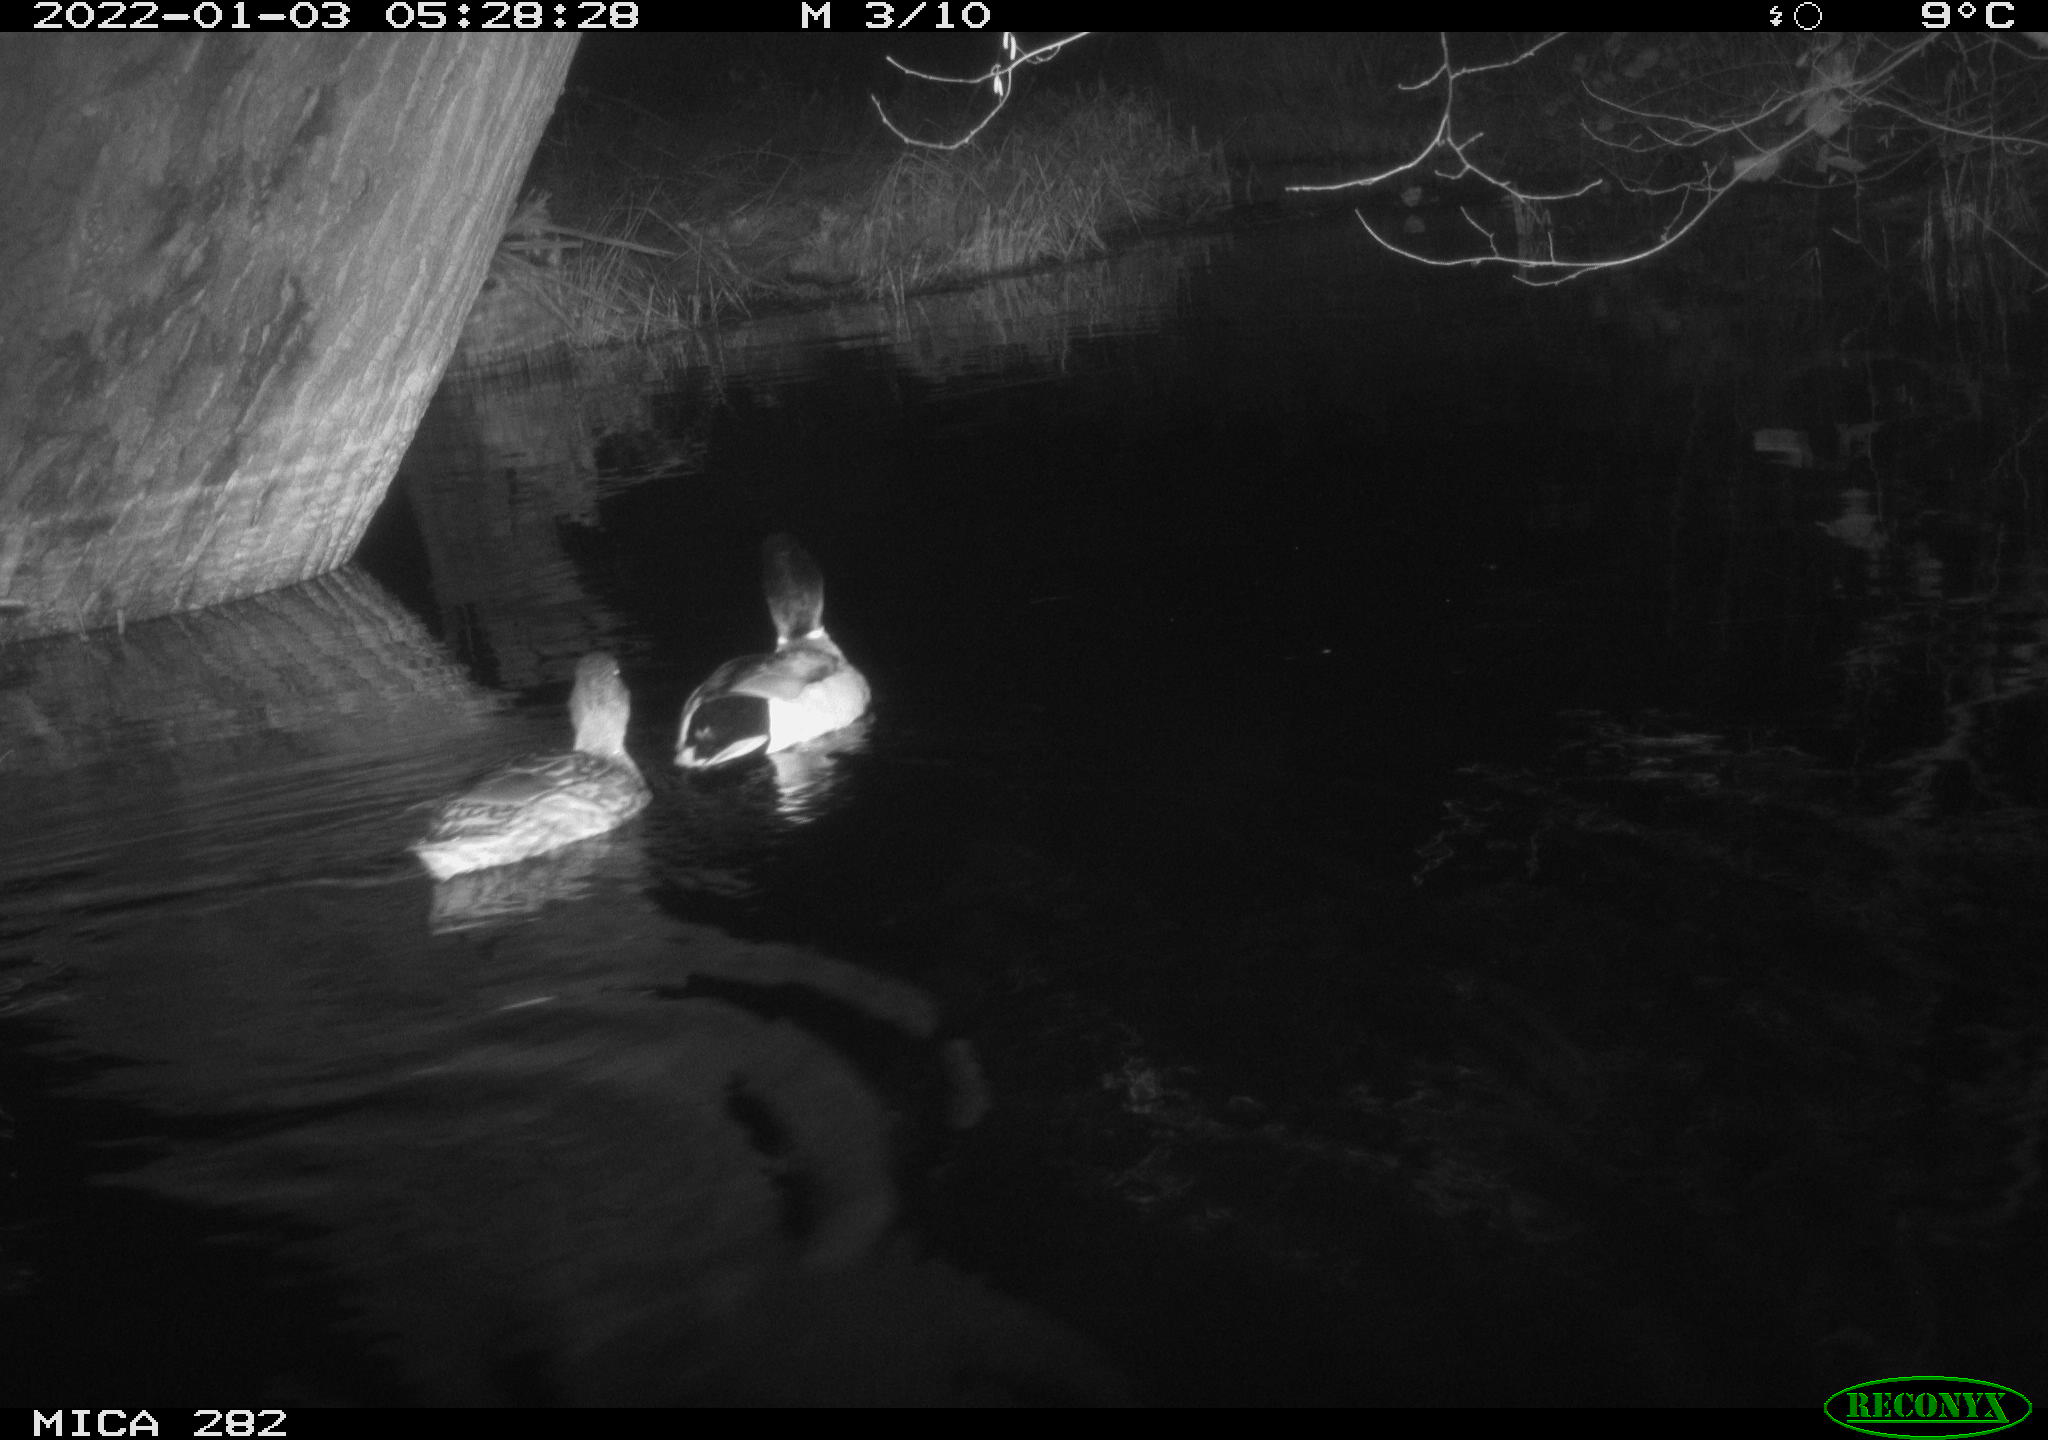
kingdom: Animalia
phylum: Chordata
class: Aves
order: Anseriformes
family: Anatidae
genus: Anas
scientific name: Anas platyrhynchos
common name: Mallard
